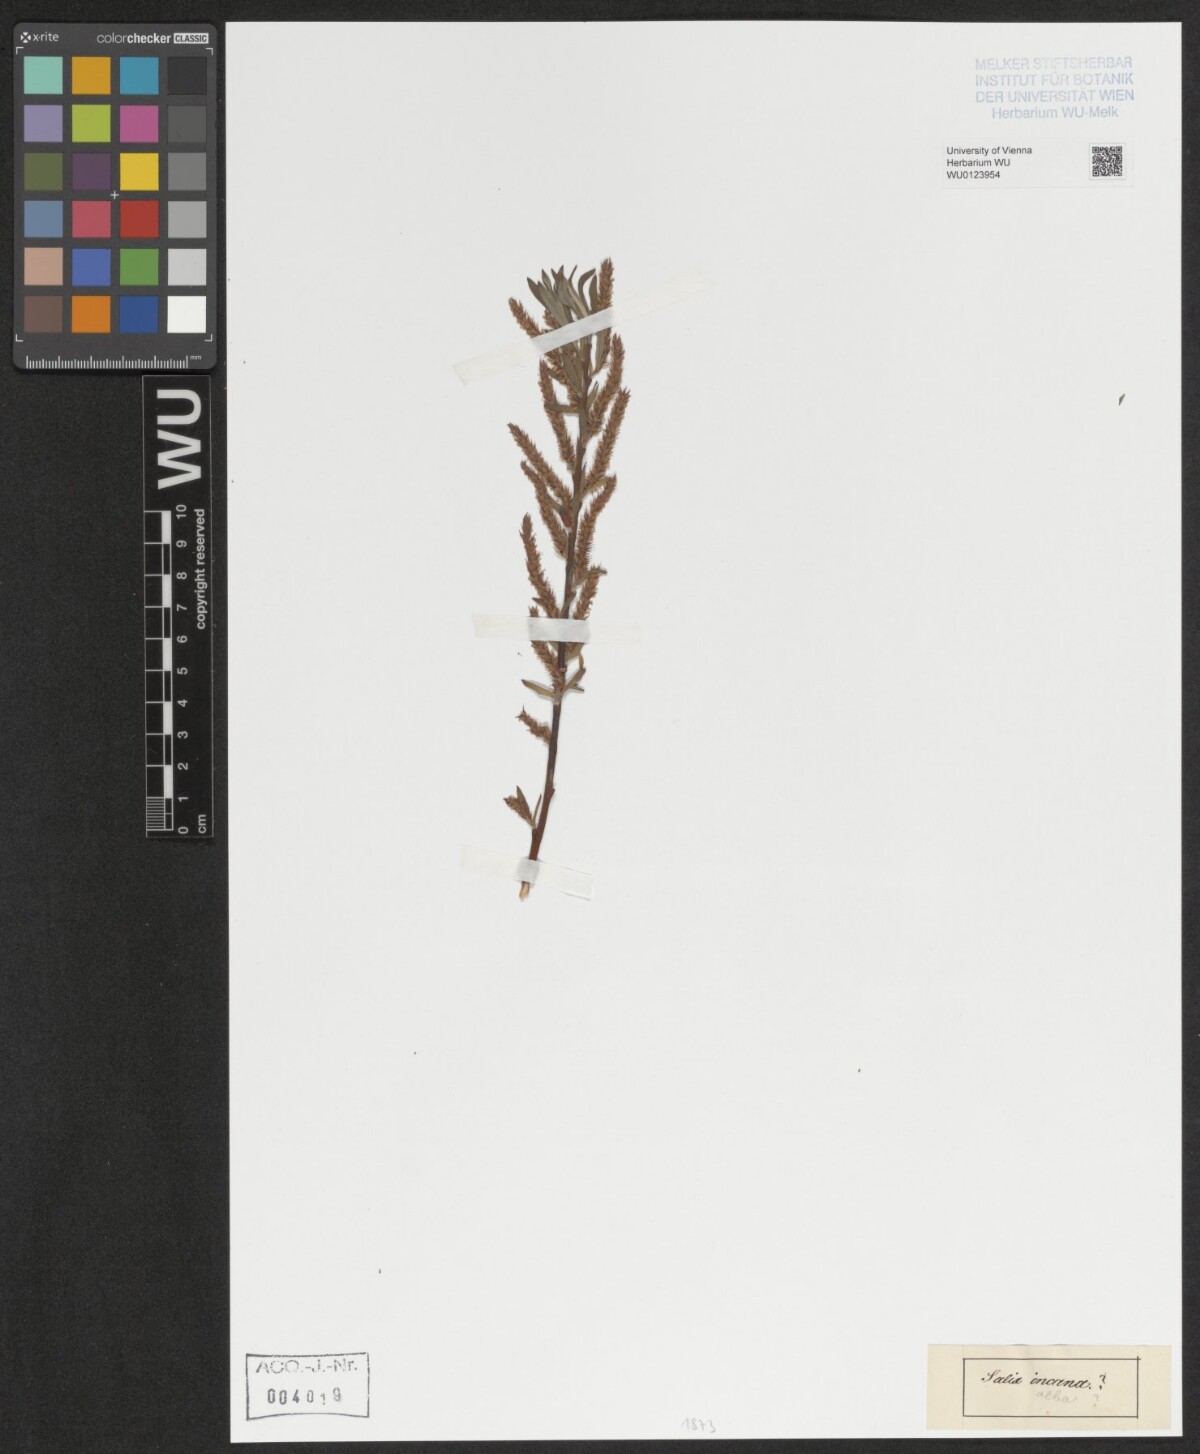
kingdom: Plantae
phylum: Tracheophyta
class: Magnoliopsida
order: Malpighiales
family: Salicaceae
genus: Salix
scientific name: Salix alba
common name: White willow
